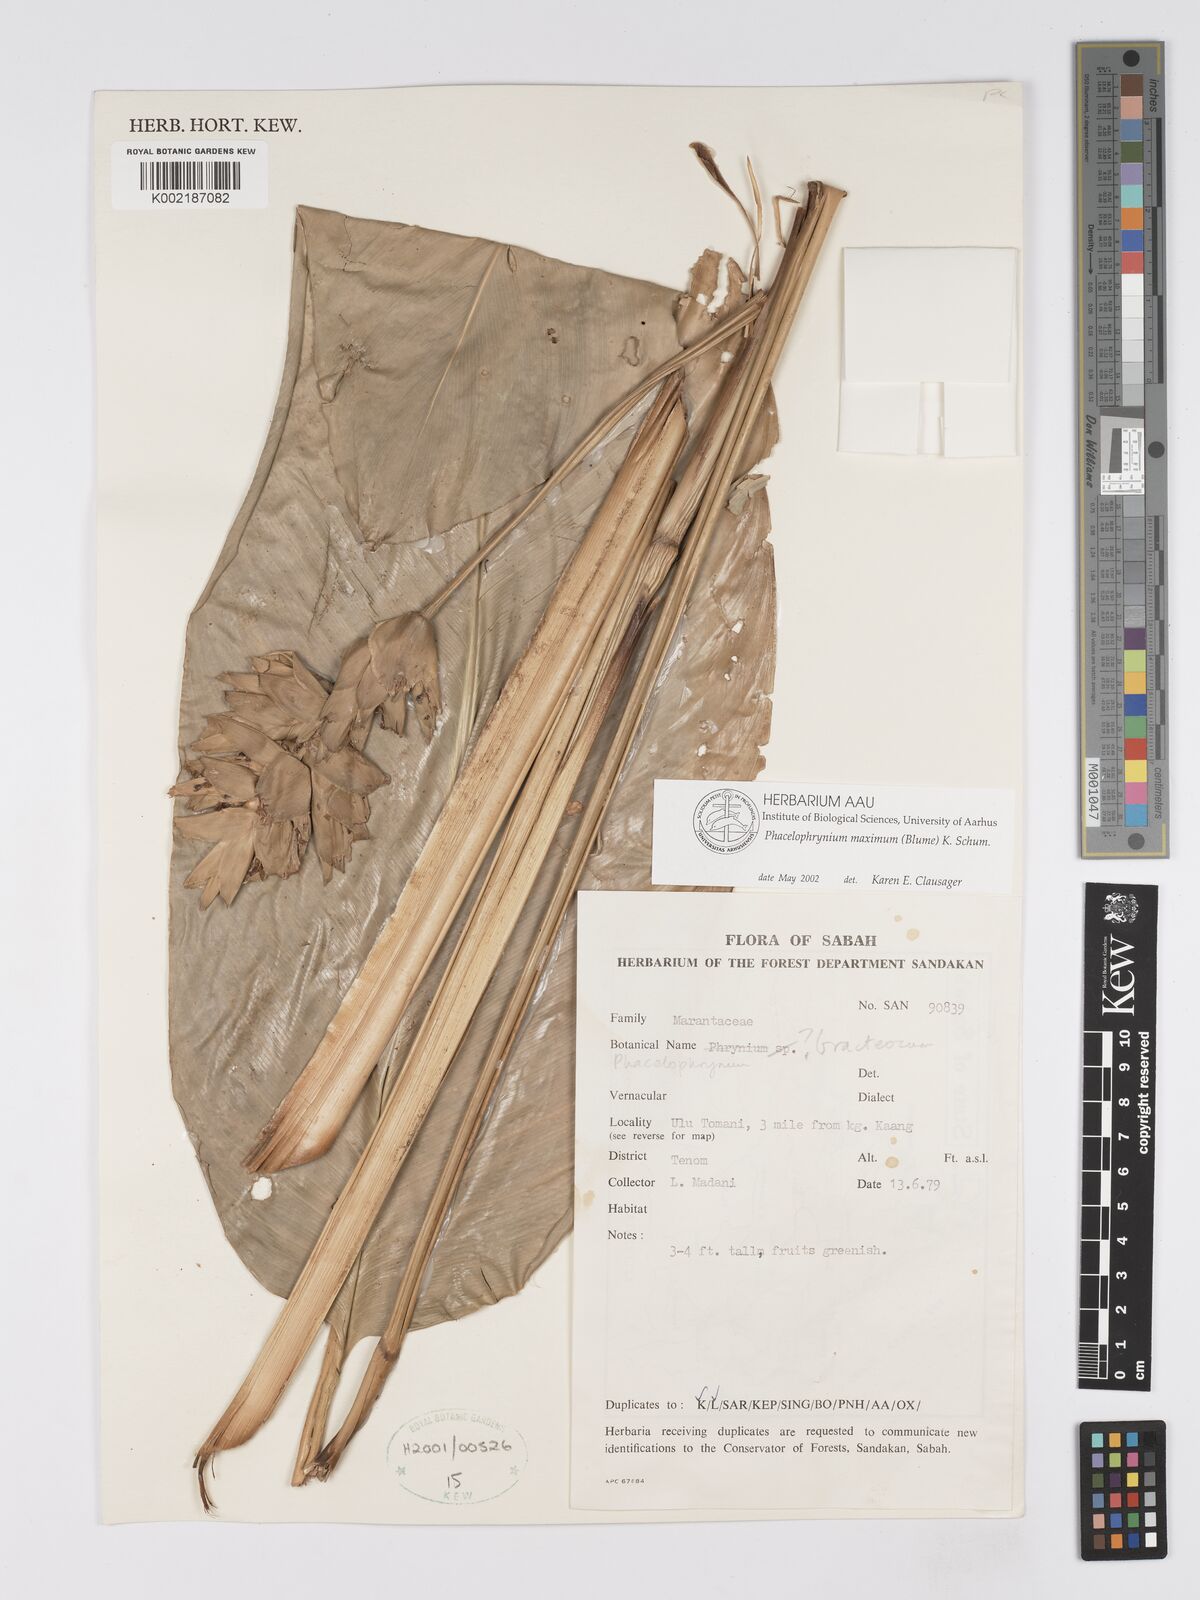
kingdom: Plantae
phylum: Tracheophyta
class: Liliopsida
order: Zingiberales
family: Marantaceae
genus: Phrynium
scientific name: Phrynium maximum
